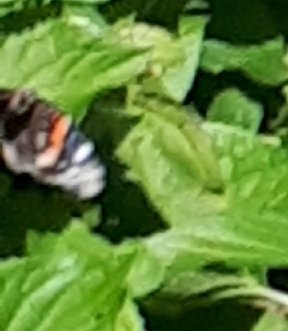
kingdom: Animalia
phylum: Arthropoda
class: Insecta
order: Lepidoptera
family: Nymphalidae
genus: Vanessa
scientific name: Vanessa atalanta
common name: Red Admiral
